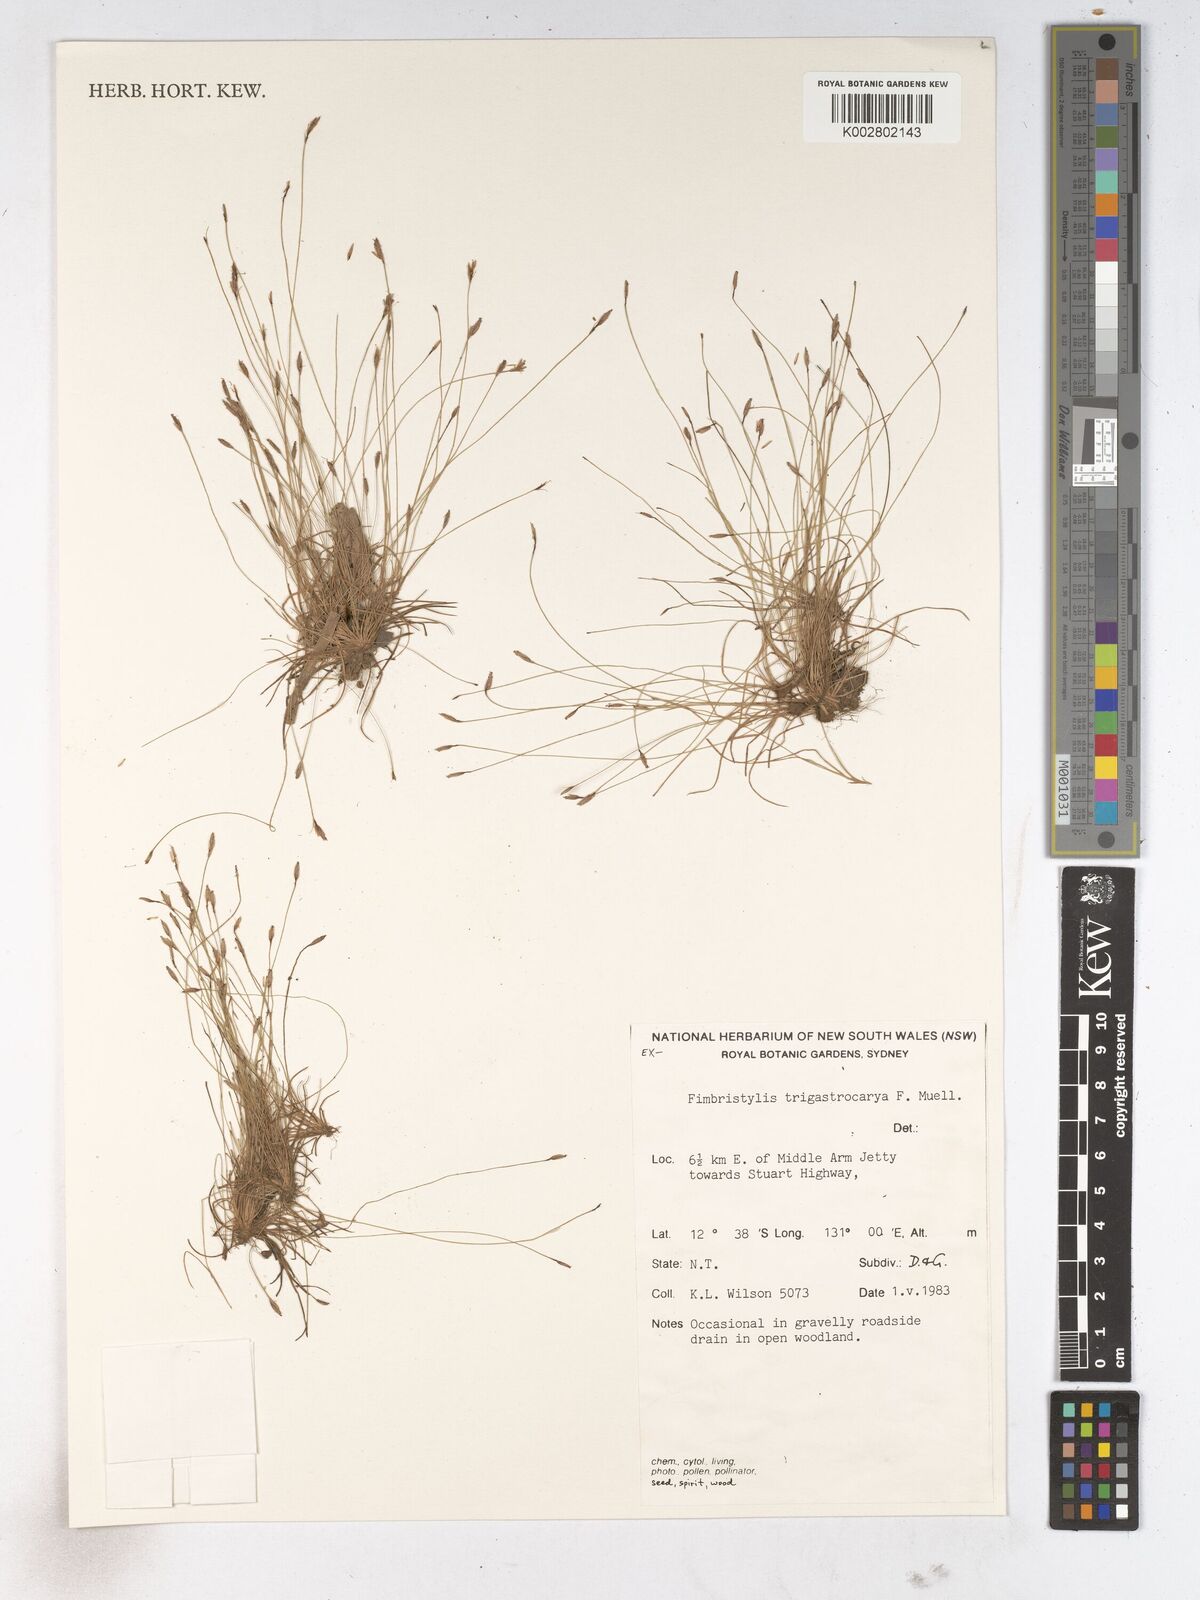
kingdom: Plantae
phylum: Tracheophyta
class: Liliopsida
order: Poales
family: Cyperaceae
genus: Fimbristylis
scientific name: Fimbristylis trigastrocarya
